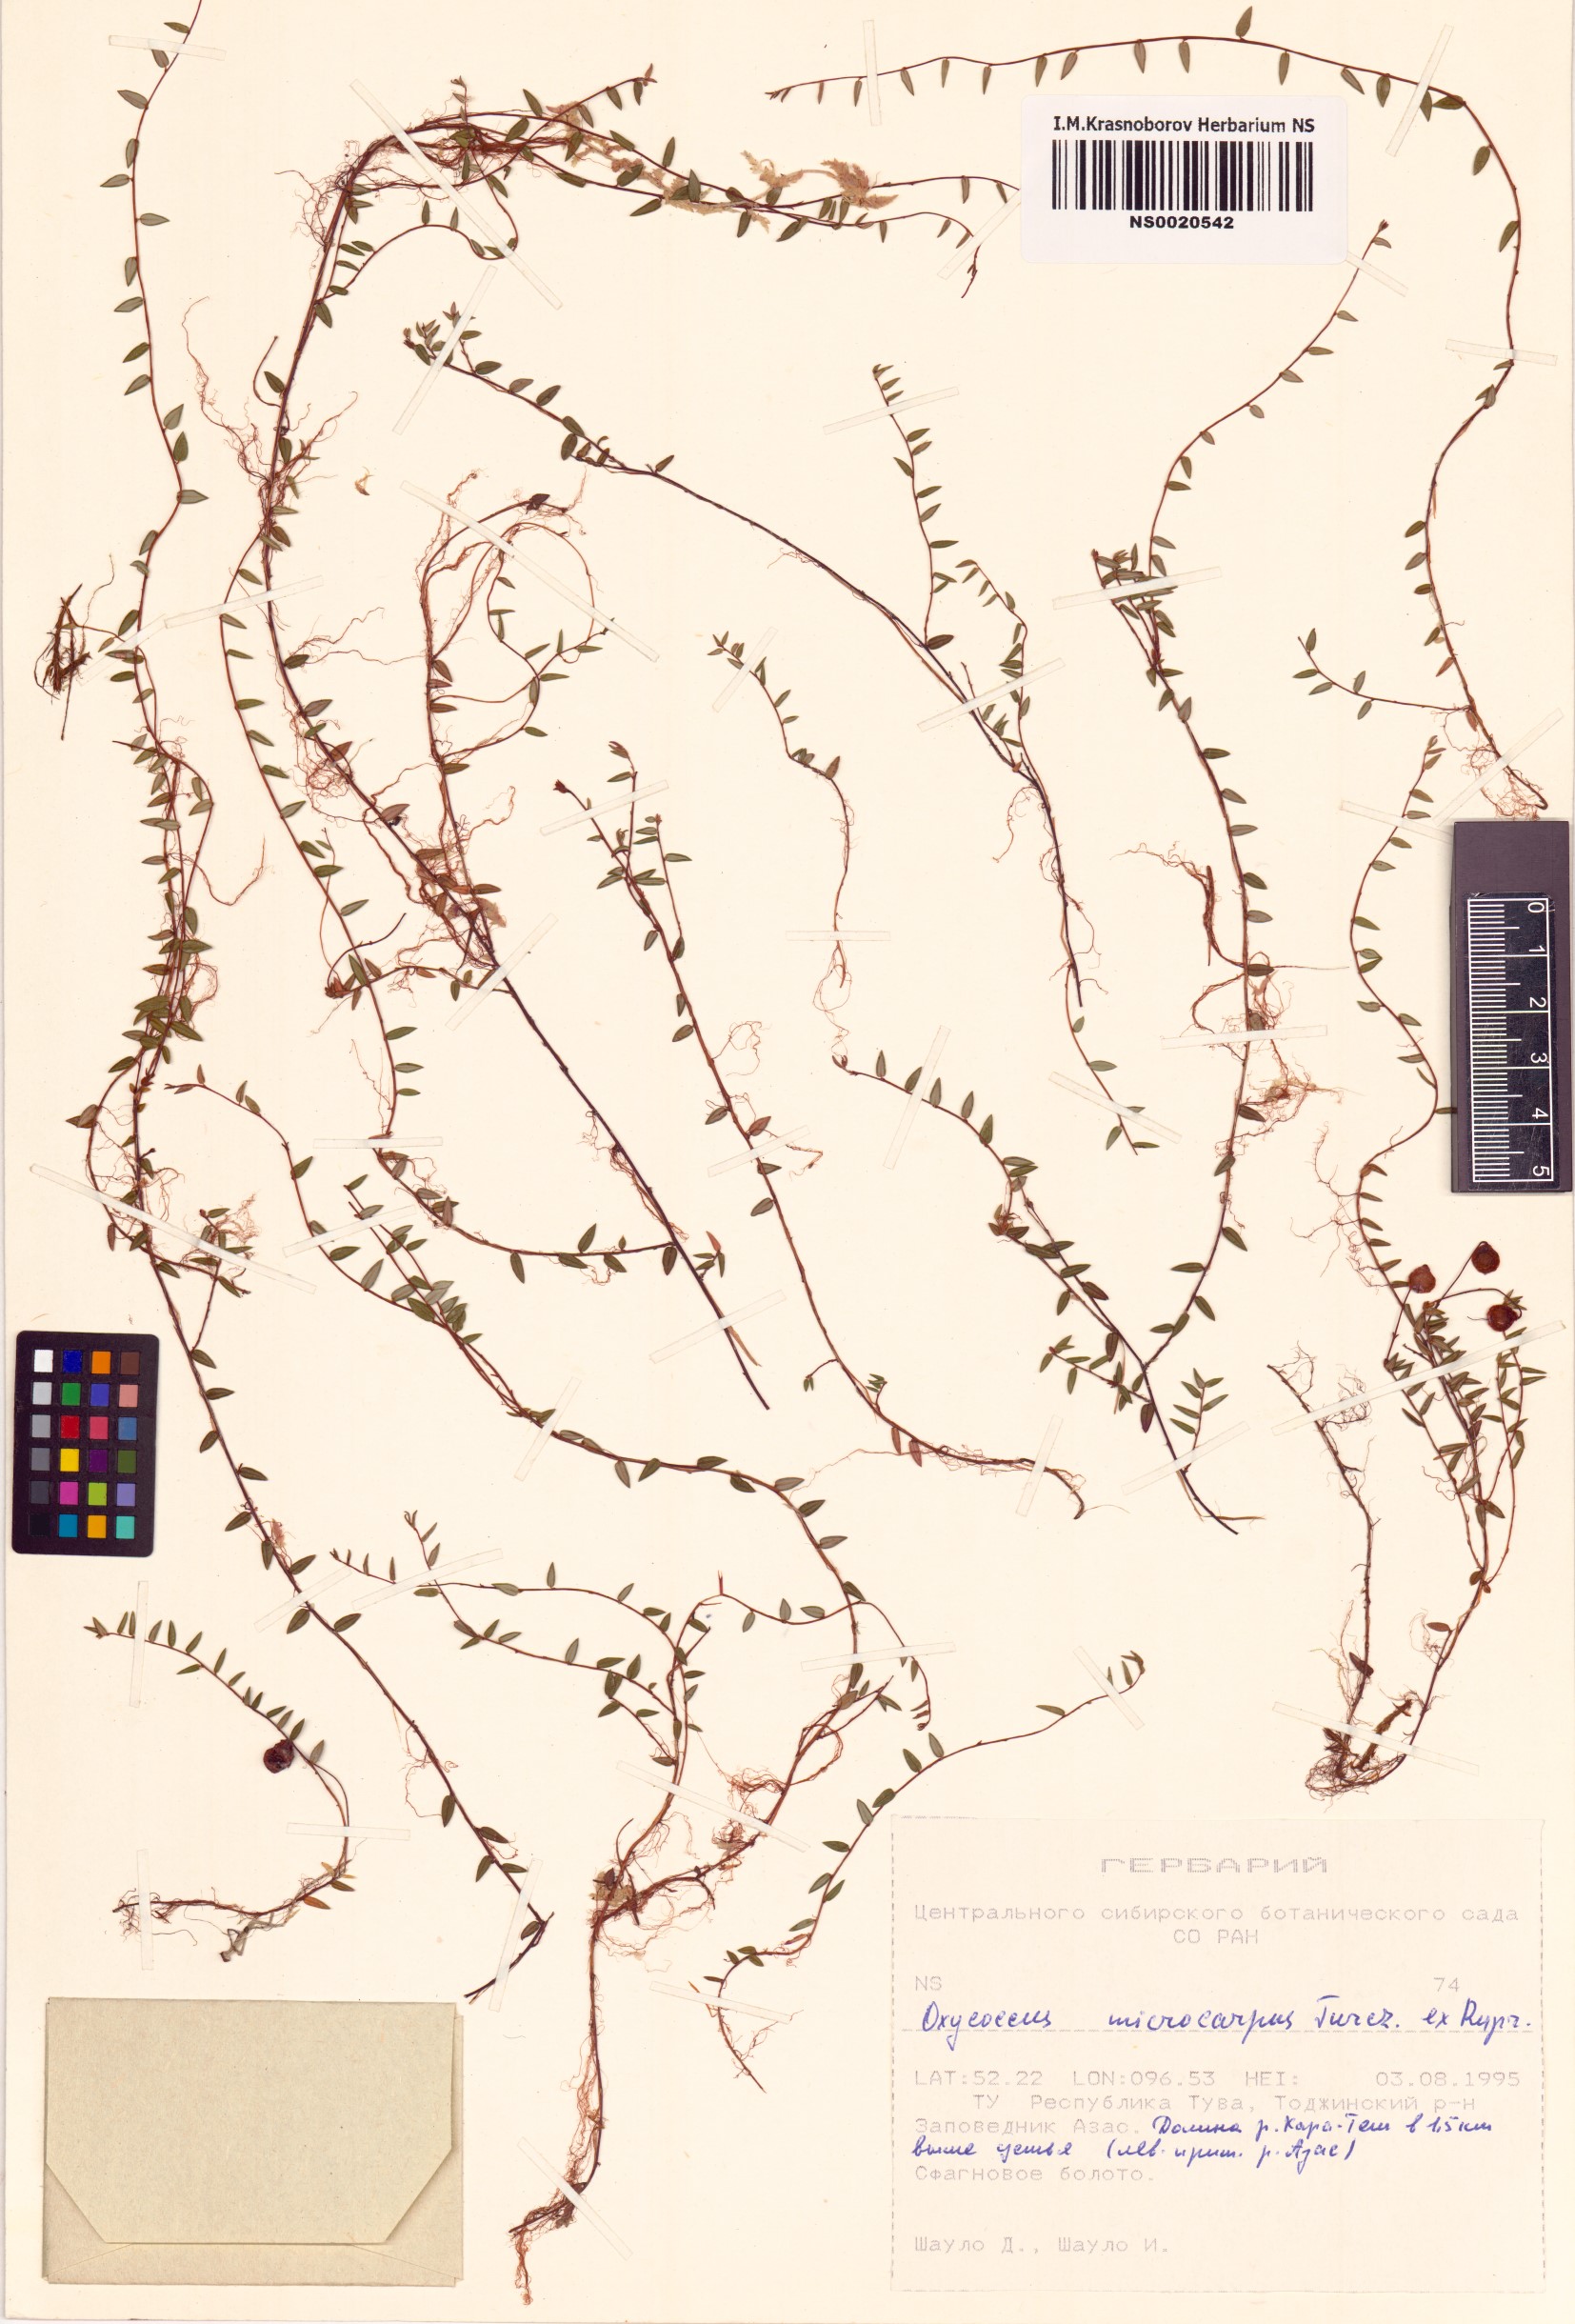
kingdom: Plantae
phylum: Tracheophyta
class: Magnoliopsida
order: Ericales
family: Ericaceae
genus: Vaccinium
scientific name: Vaccinium microcarpum
